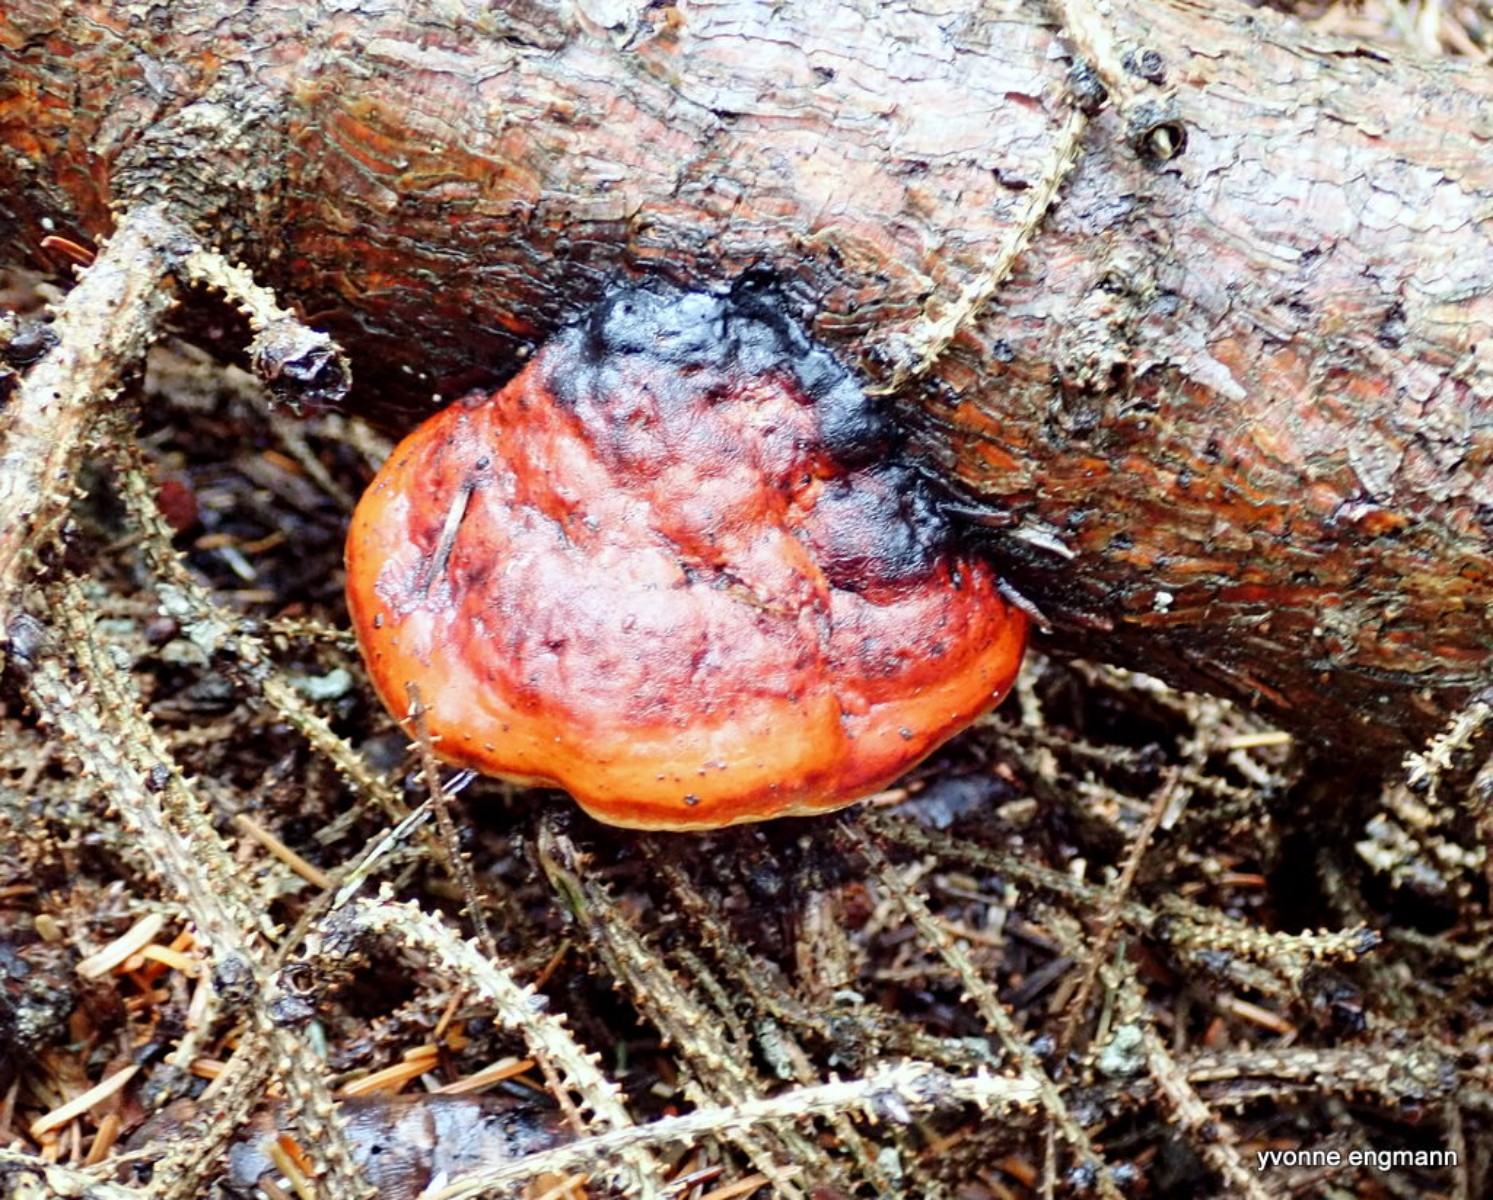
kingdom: Fungi
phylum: Basidiomycota
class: Agaricomycetes
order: Polyporales
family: Fomitopsidaceae
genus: Fomitopsis
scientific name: Fomitopsis pinicola
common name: randbæltet hovporesvamp
